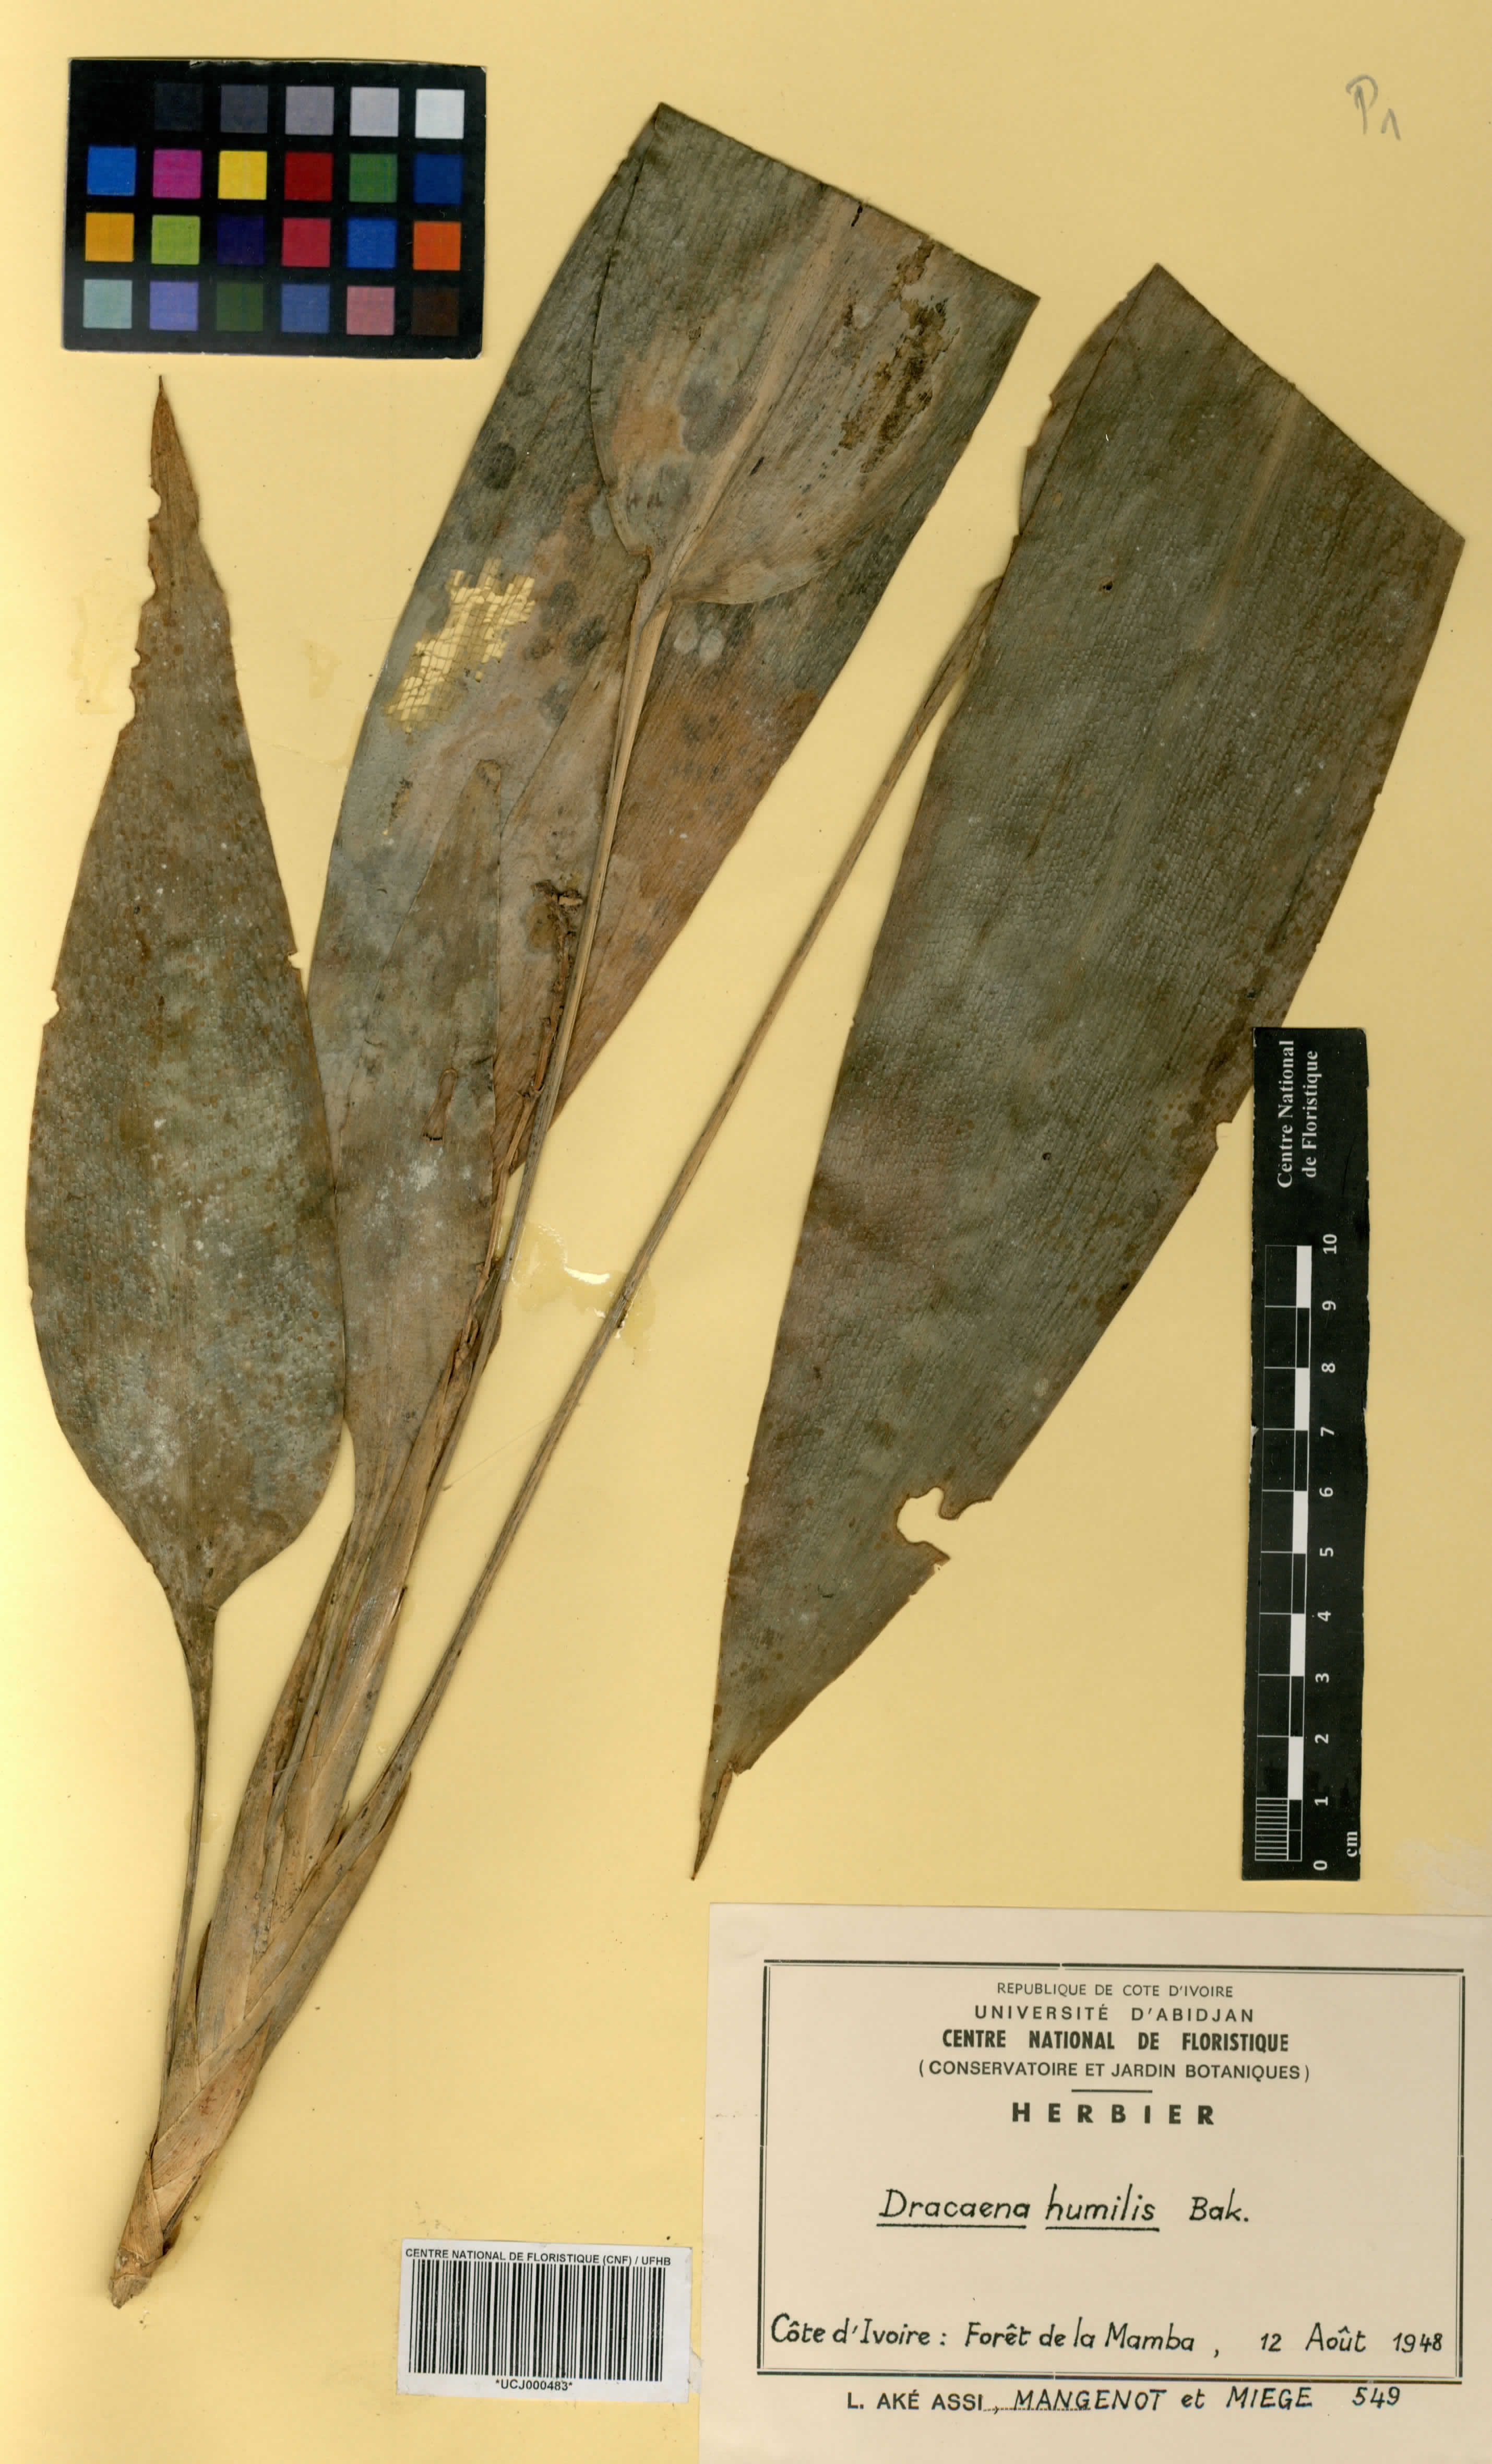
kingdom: Plantae
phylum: Tracheophyta
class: Liliopsida
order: Asparagales
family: Asparagaceae
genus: Dracaena
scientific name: Dracaena aubryana
